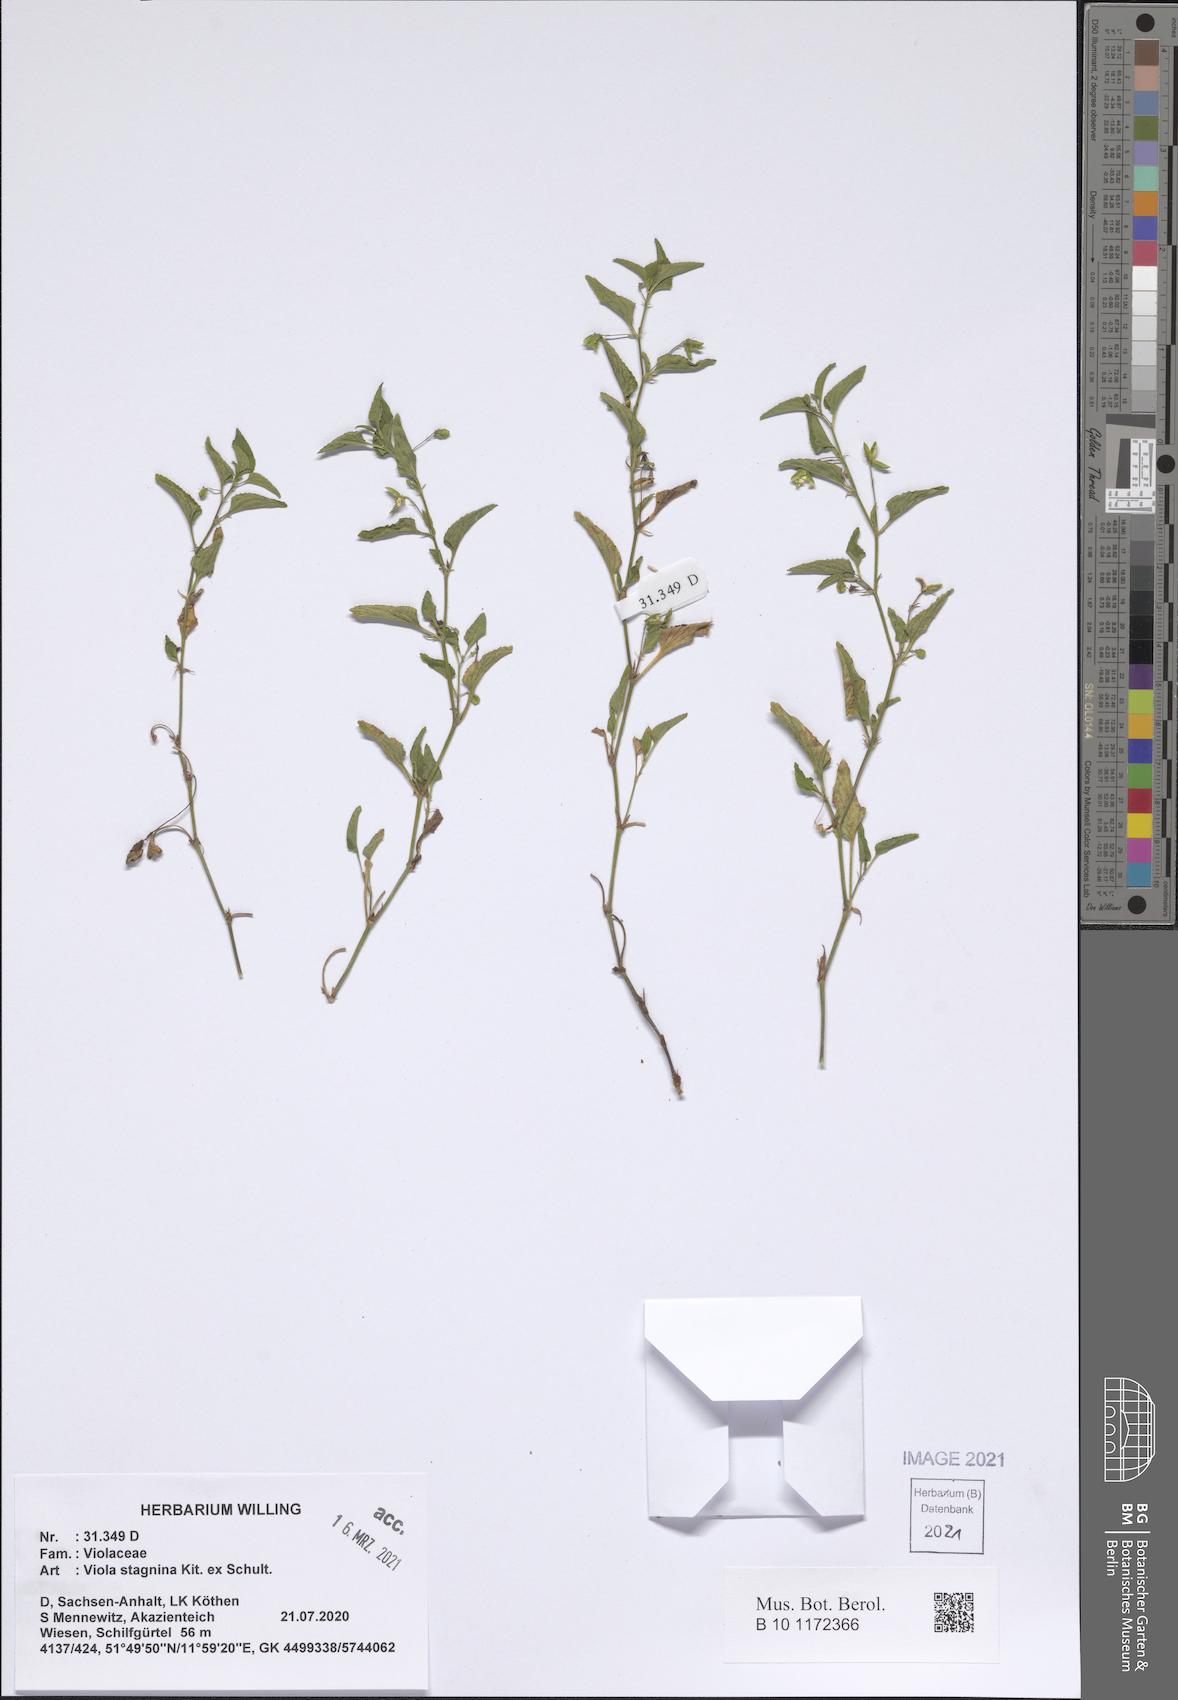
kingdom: Plantae
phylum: Tracheophyta
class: Magnoliopsida
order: Malpighiales
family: Violaceae
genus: Viola
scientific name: Viola stagnina
